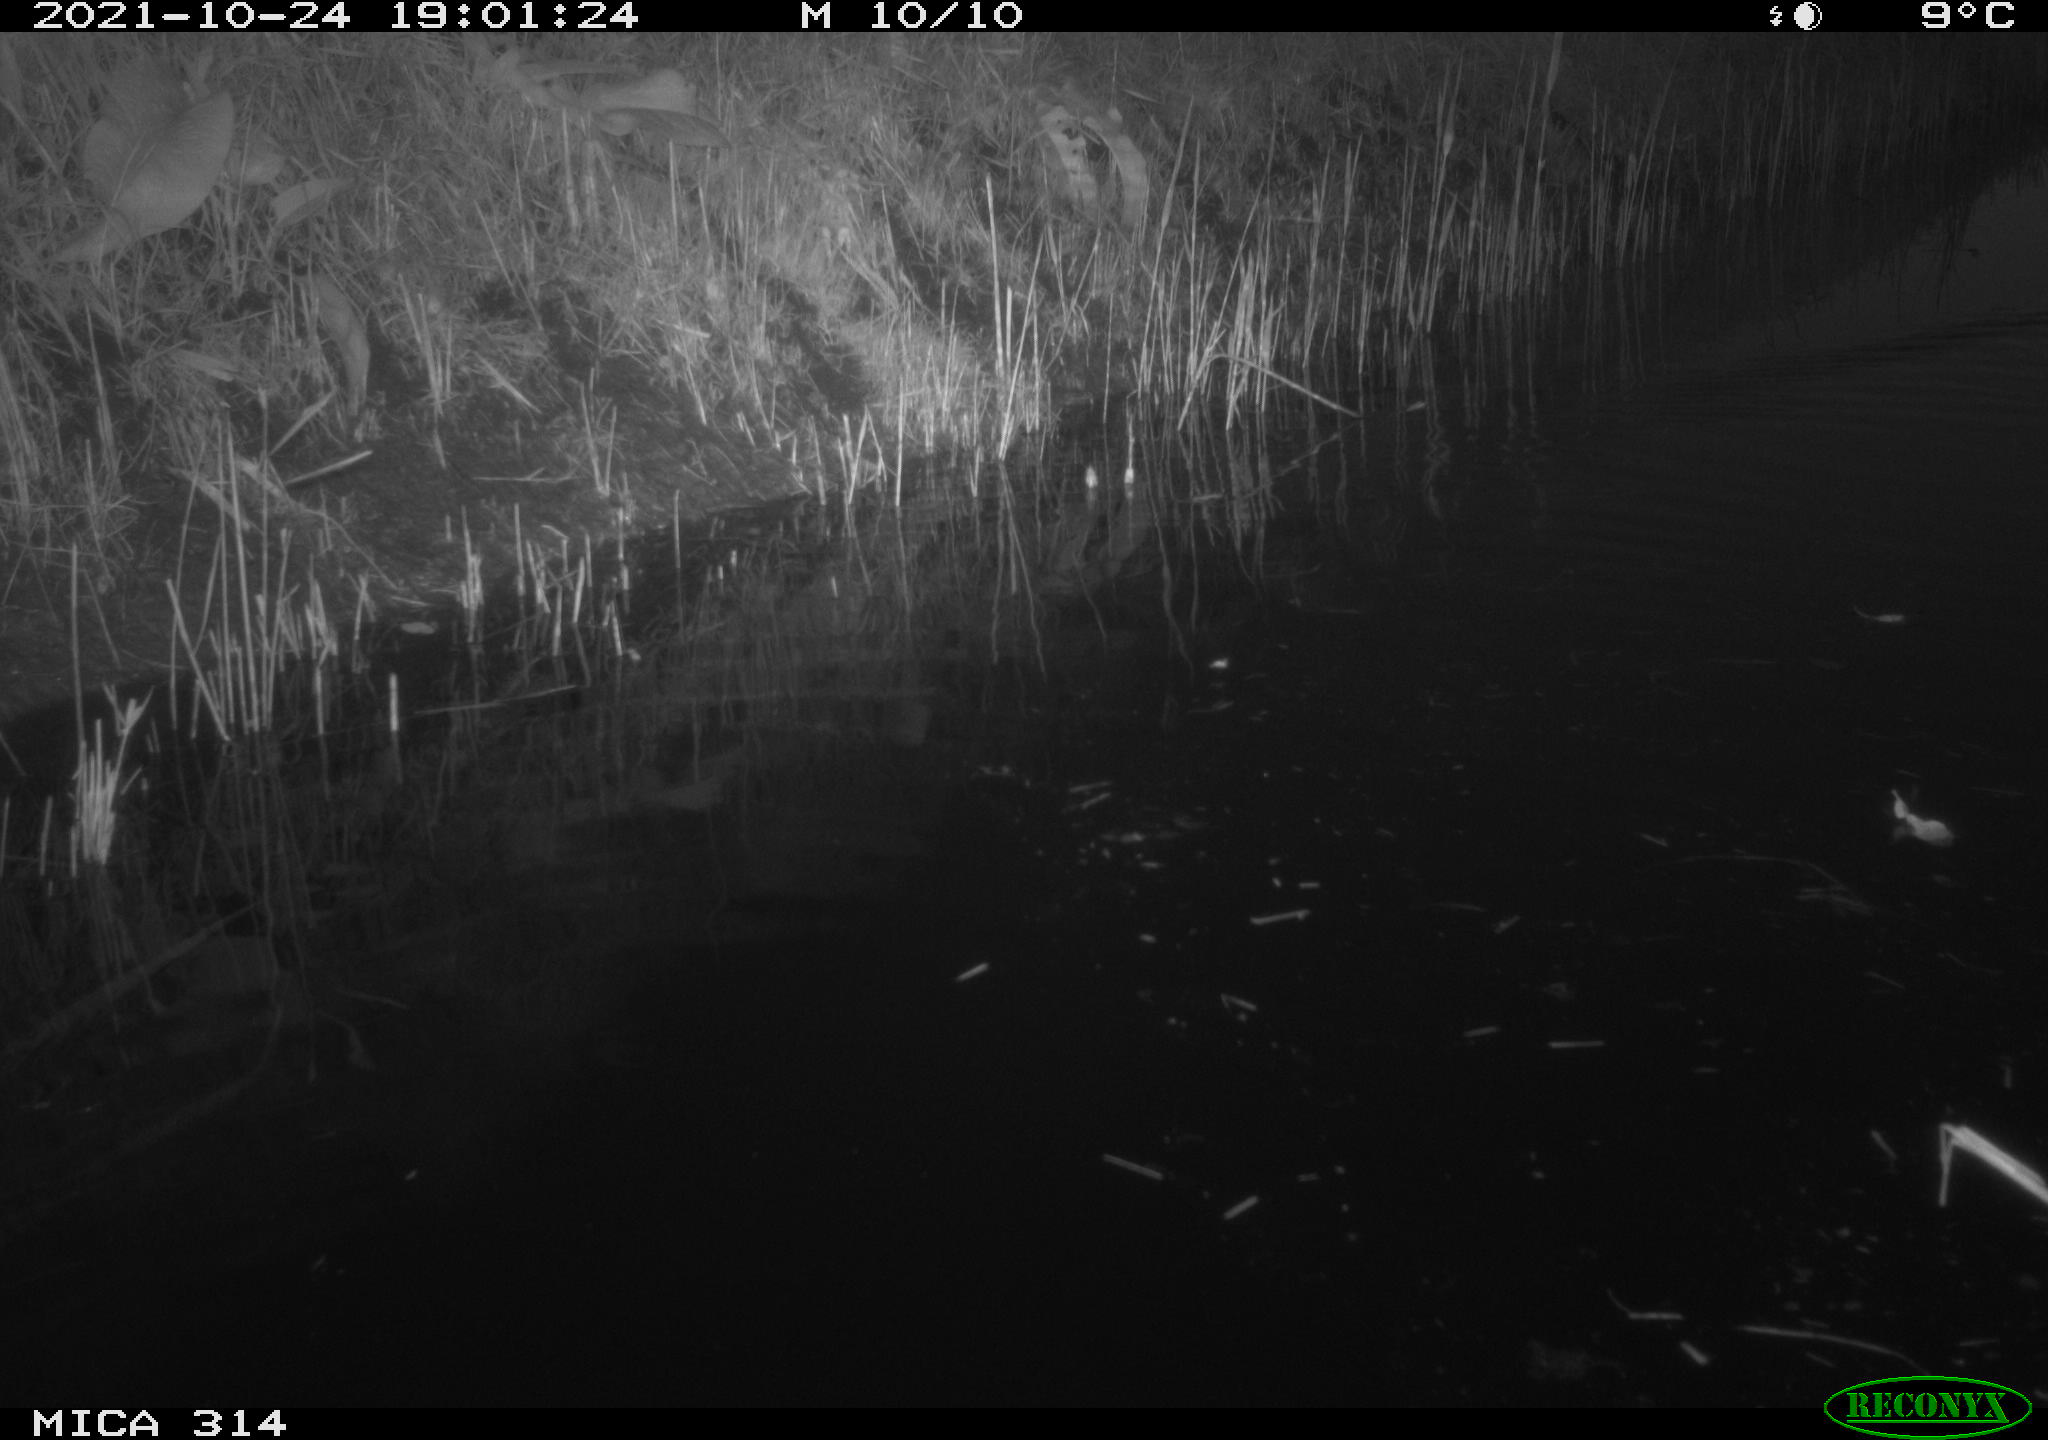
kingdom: Animalia
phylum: Chordata
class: Mammalia
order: Rodentia
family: Muridae
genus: Rattus
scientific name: Rattus norvegicus
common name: Brown rat
